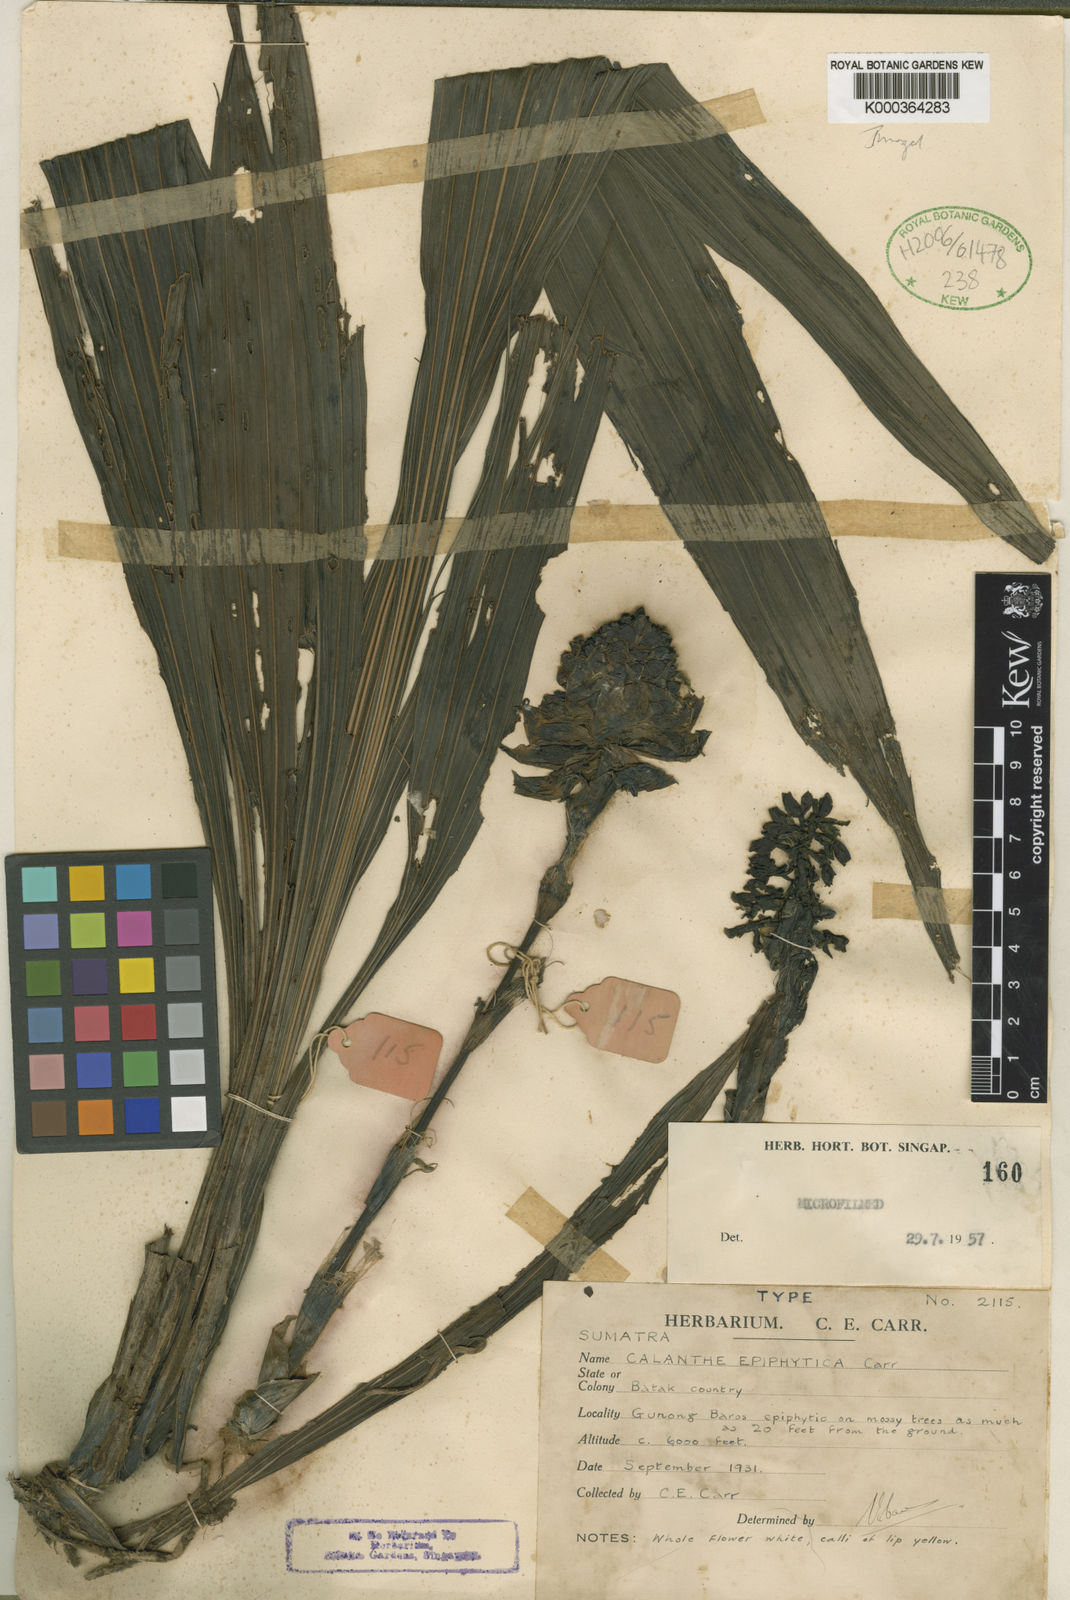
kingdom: Plantae
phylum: Tracheophyta
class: Liliopsida
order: Asparagales
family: Orchidaceae
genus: Calanthe
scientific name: Calanthe epiphytica
